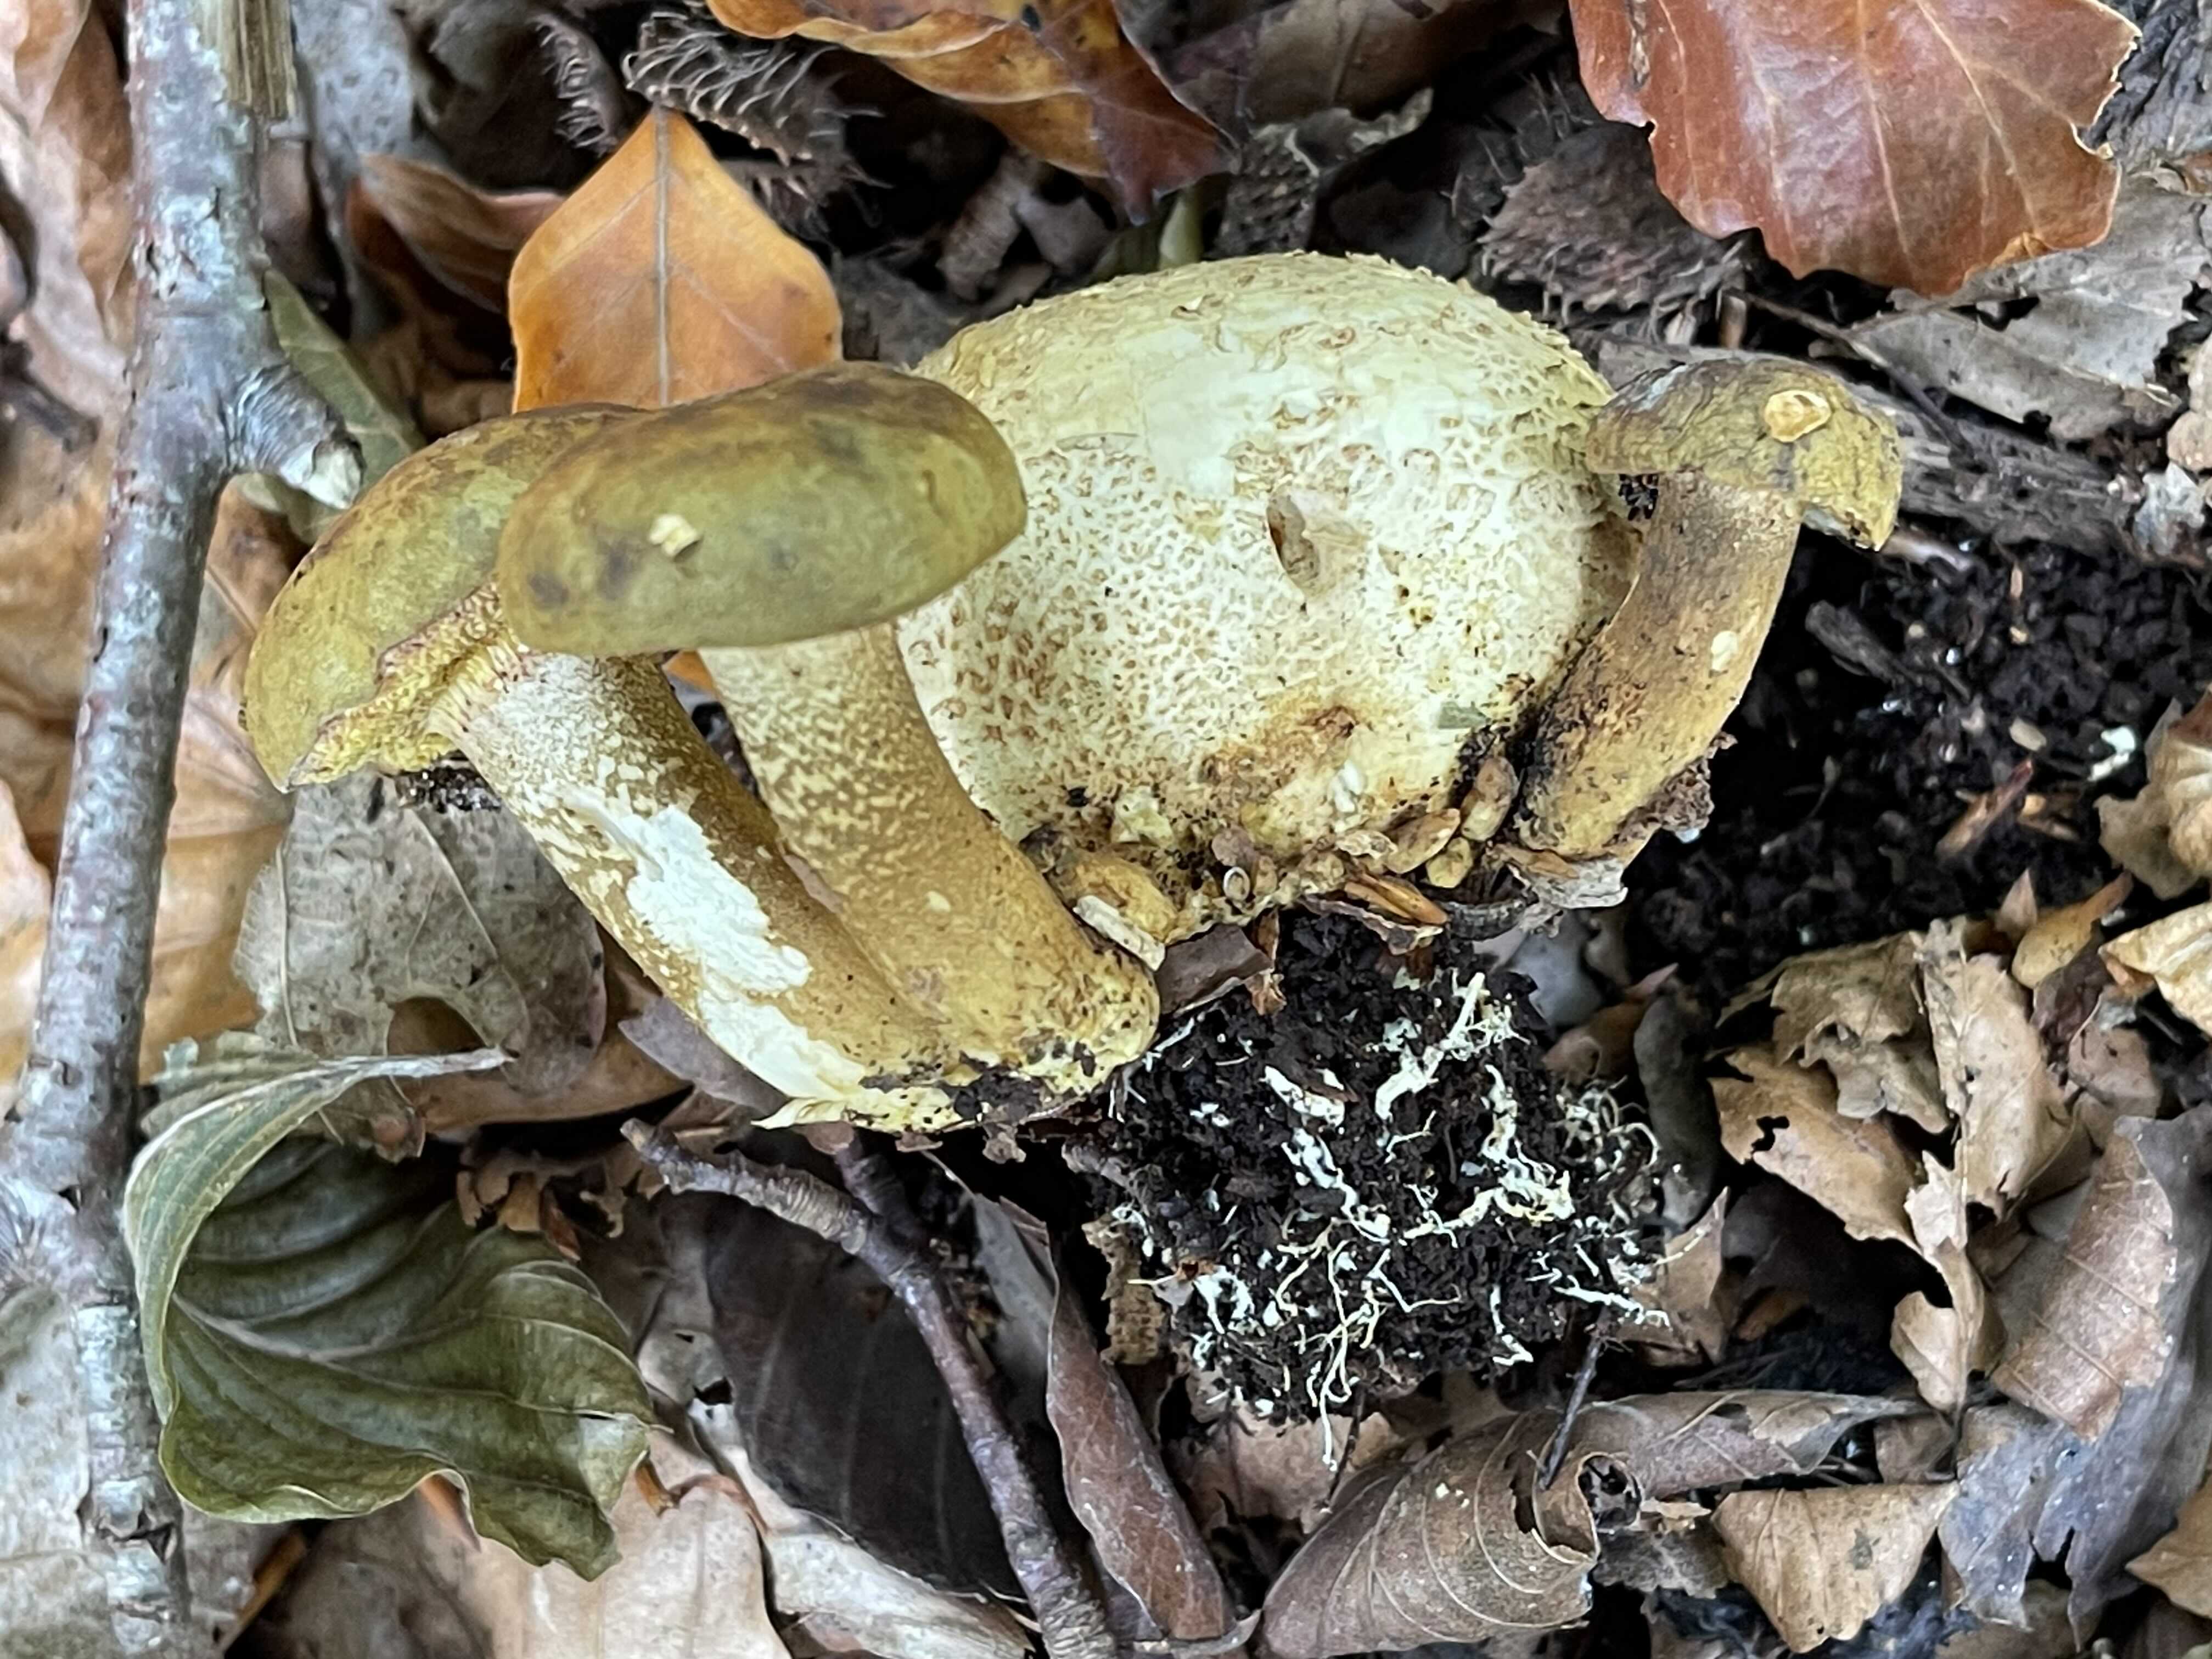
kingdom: Fungi
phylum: Basidiomycota
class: Agaricomycetes
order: Boletales
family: Boletaceae
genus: Pseudoboletus
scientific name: Pseudoboletus parasiticus
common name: snyltende rørhat
